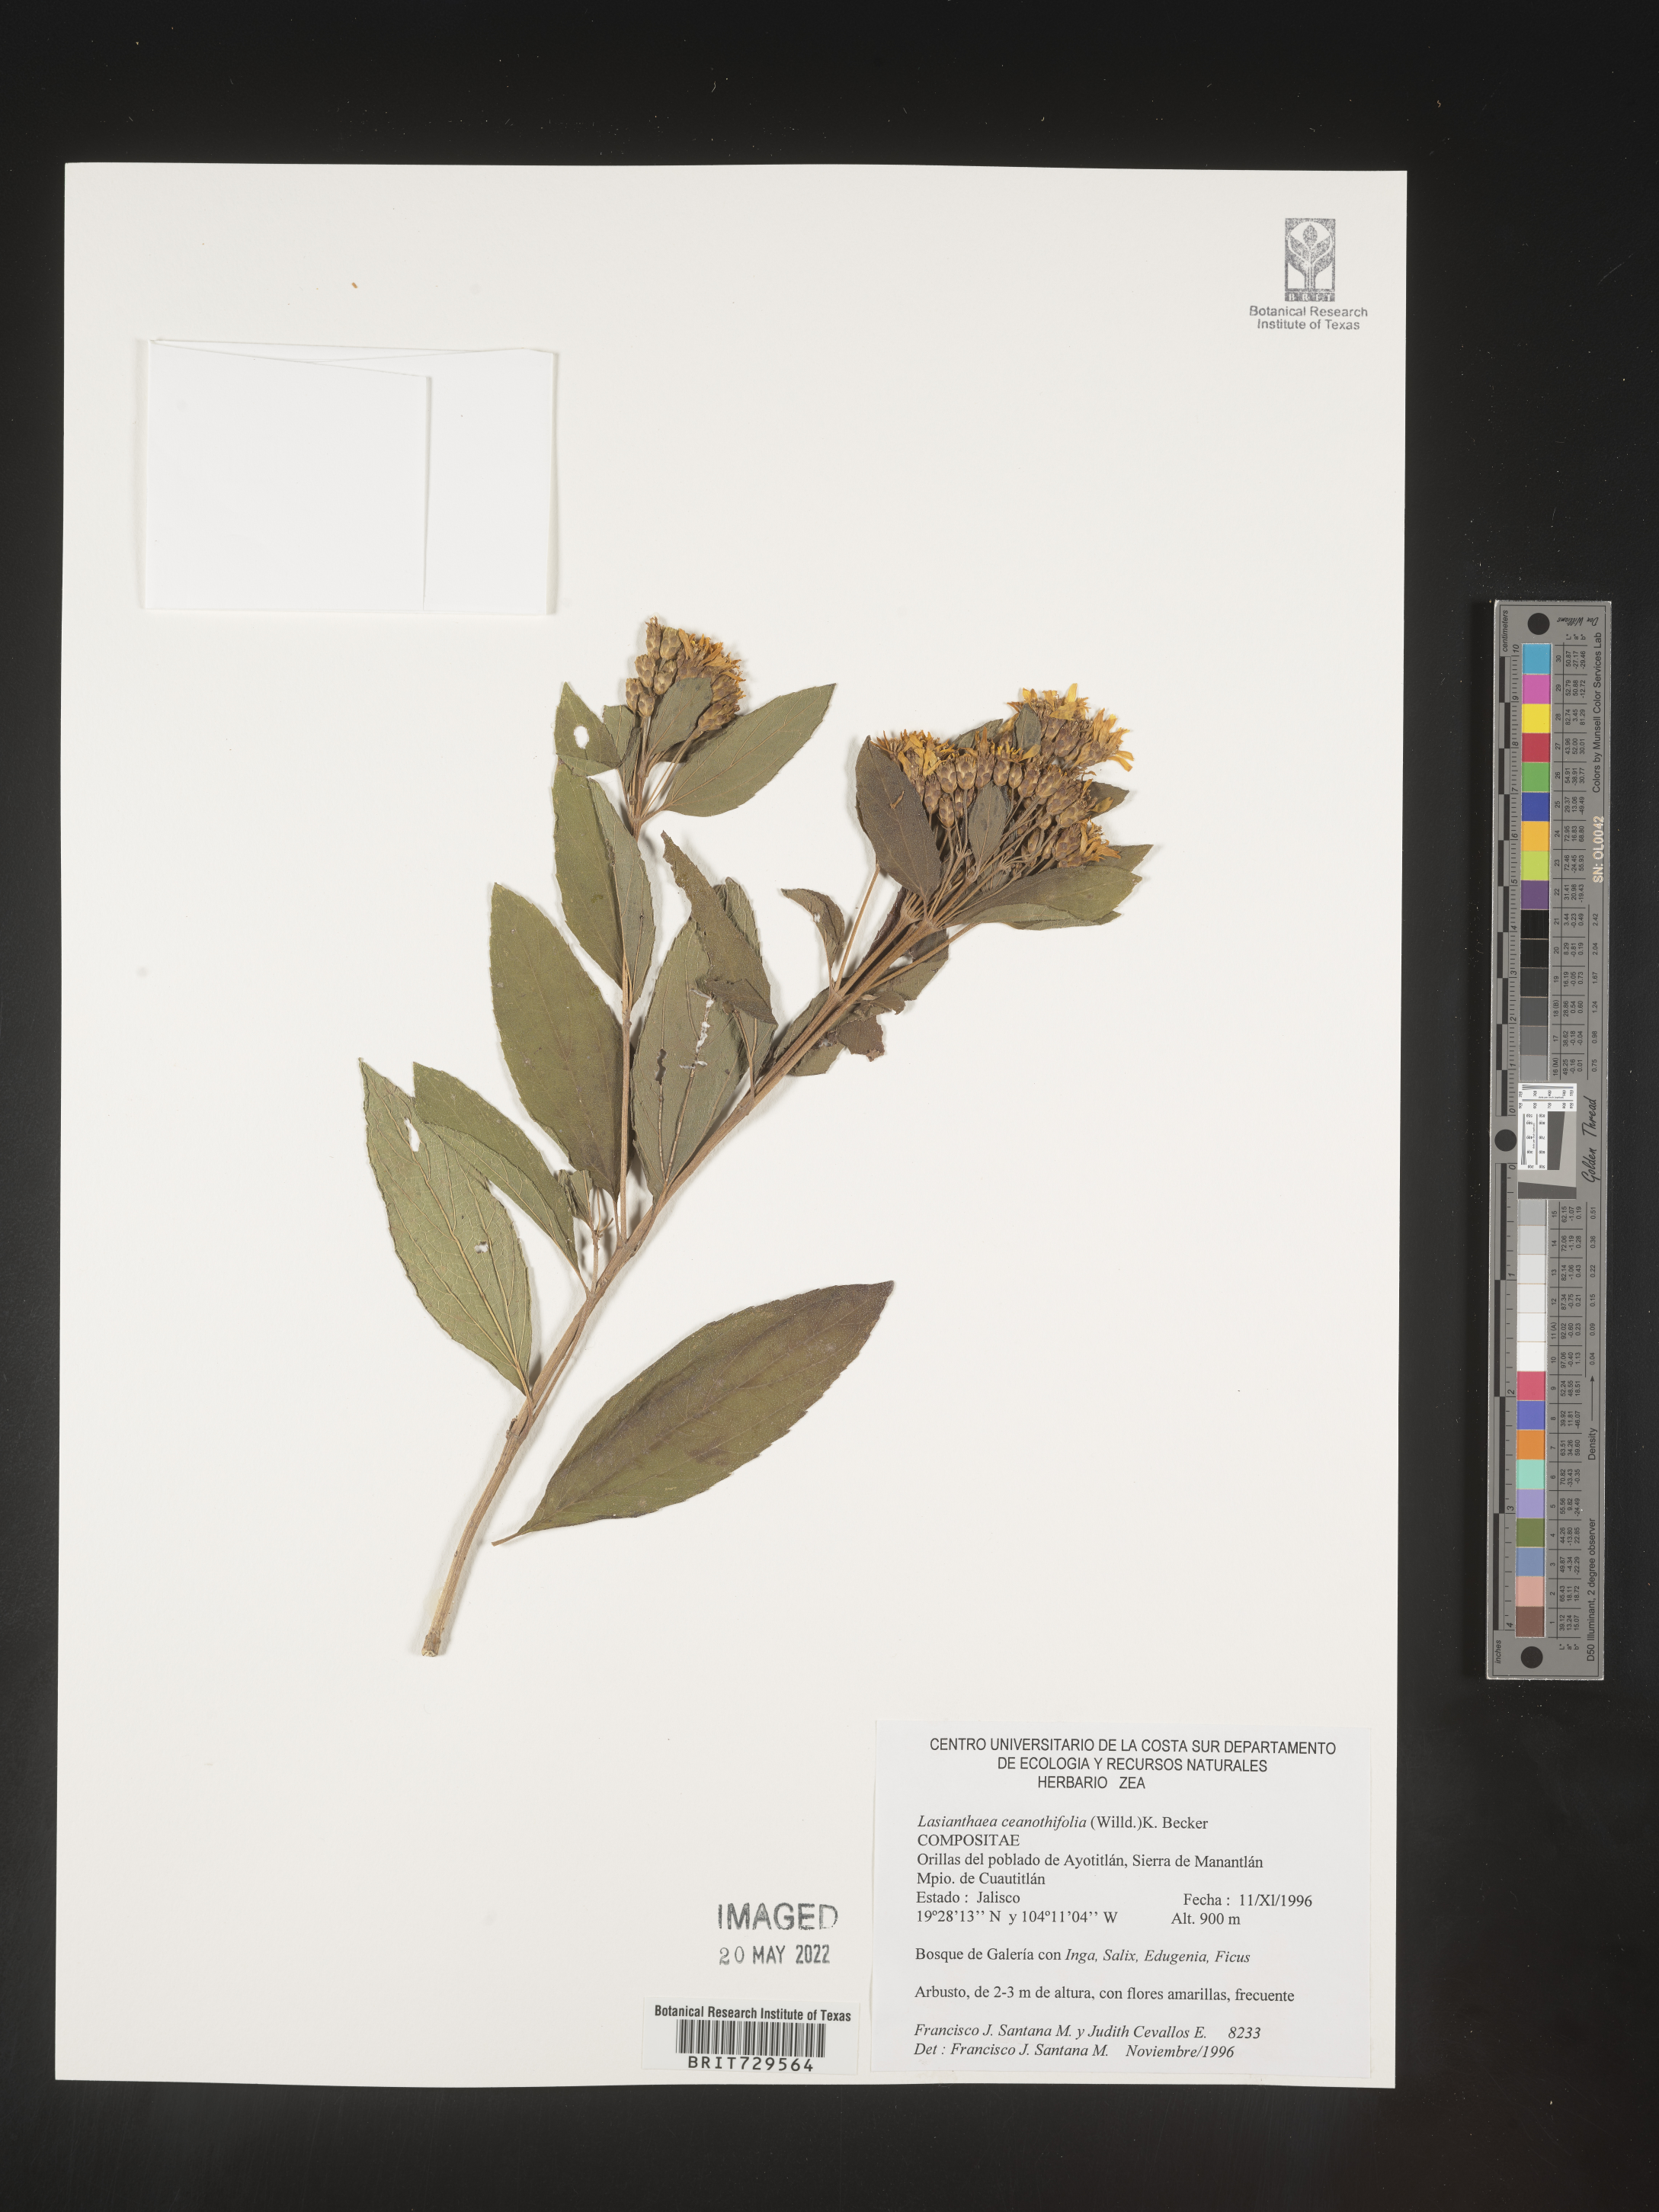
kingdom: Plantae
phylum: Tracheophyta
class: Magnoliopsida
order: Asterales
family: Asteraceae
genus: Lasianthaea
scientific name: Lasianthaea
